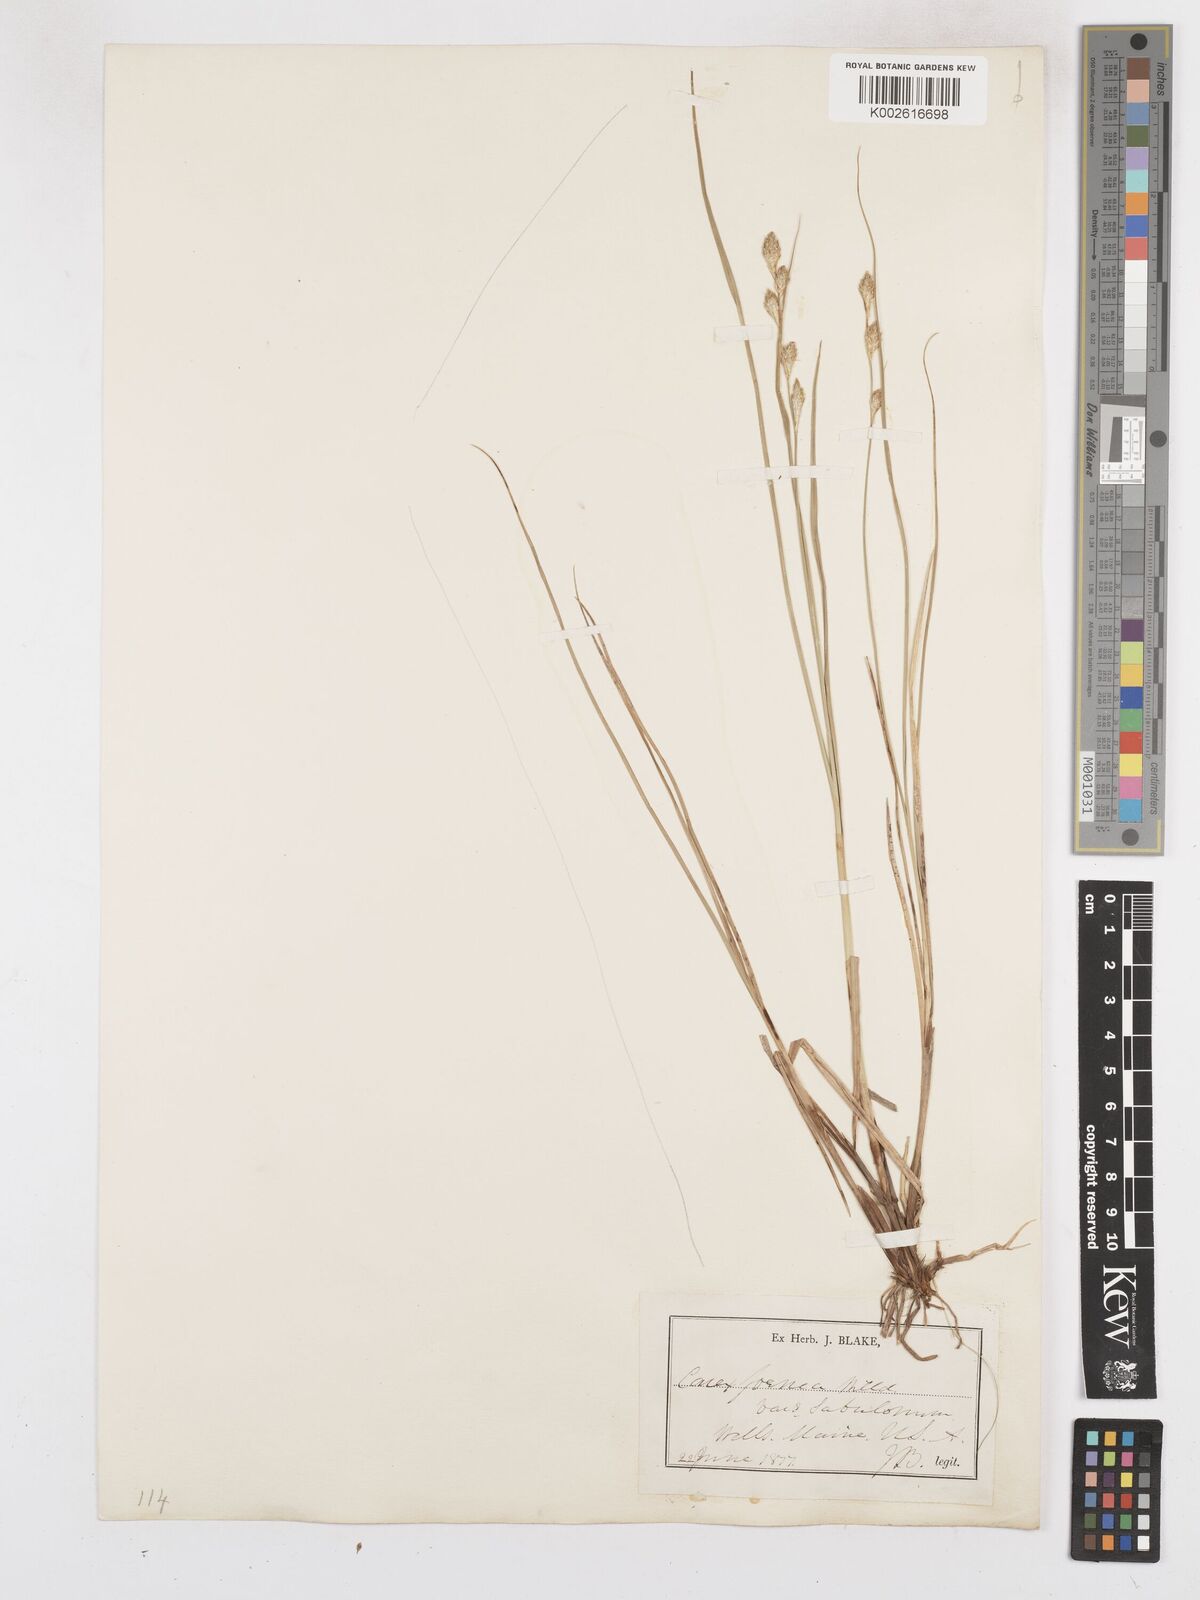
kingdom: Plantae
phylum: Tracheophyta
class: Liliopsida
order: Poales
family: Cyperaceae
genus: Carex
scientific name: Carex argyrantha
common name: Silvery-flowered sedge
